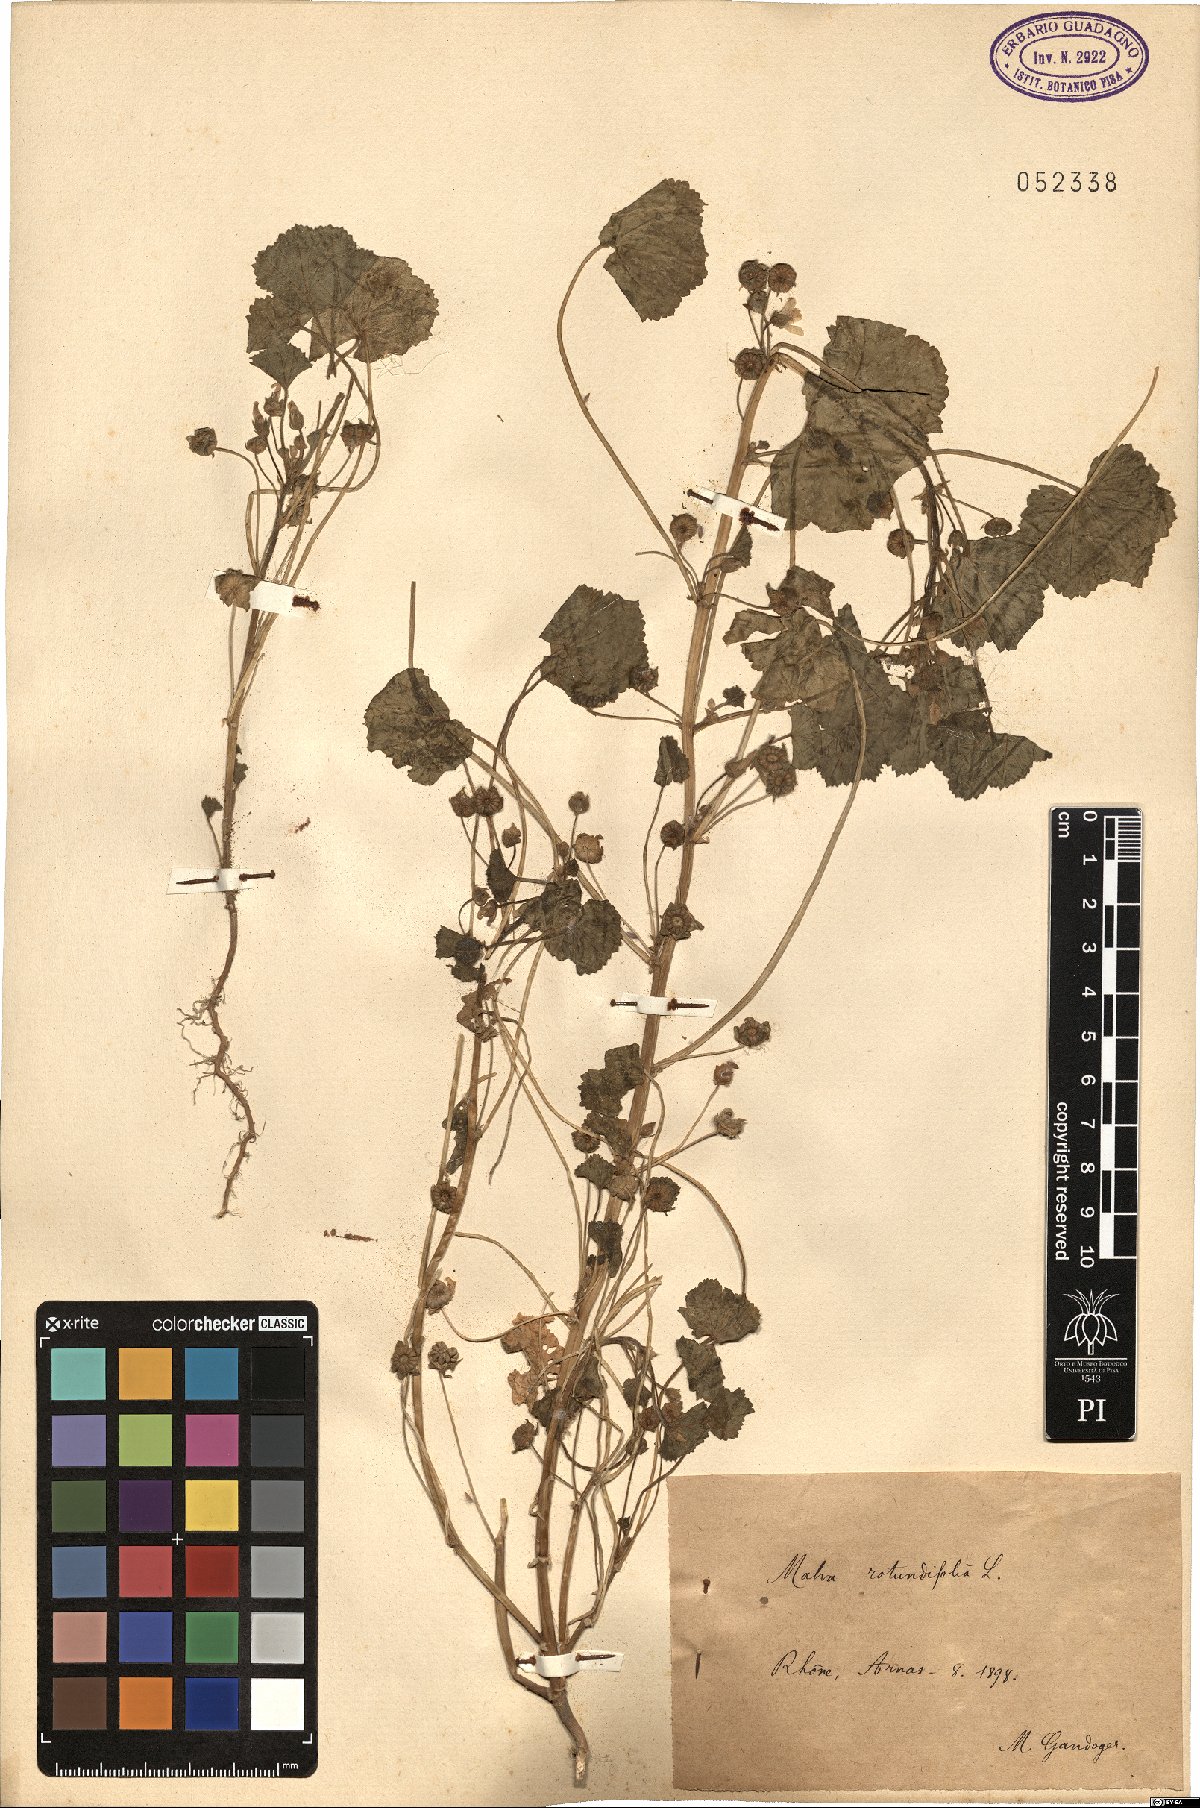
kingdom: Plantae
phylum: Tracheophyta
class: Magnoliopsida
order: Malvales
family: Malvaceae
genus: Malva
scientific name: Malva pusilla
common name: Small mallow
